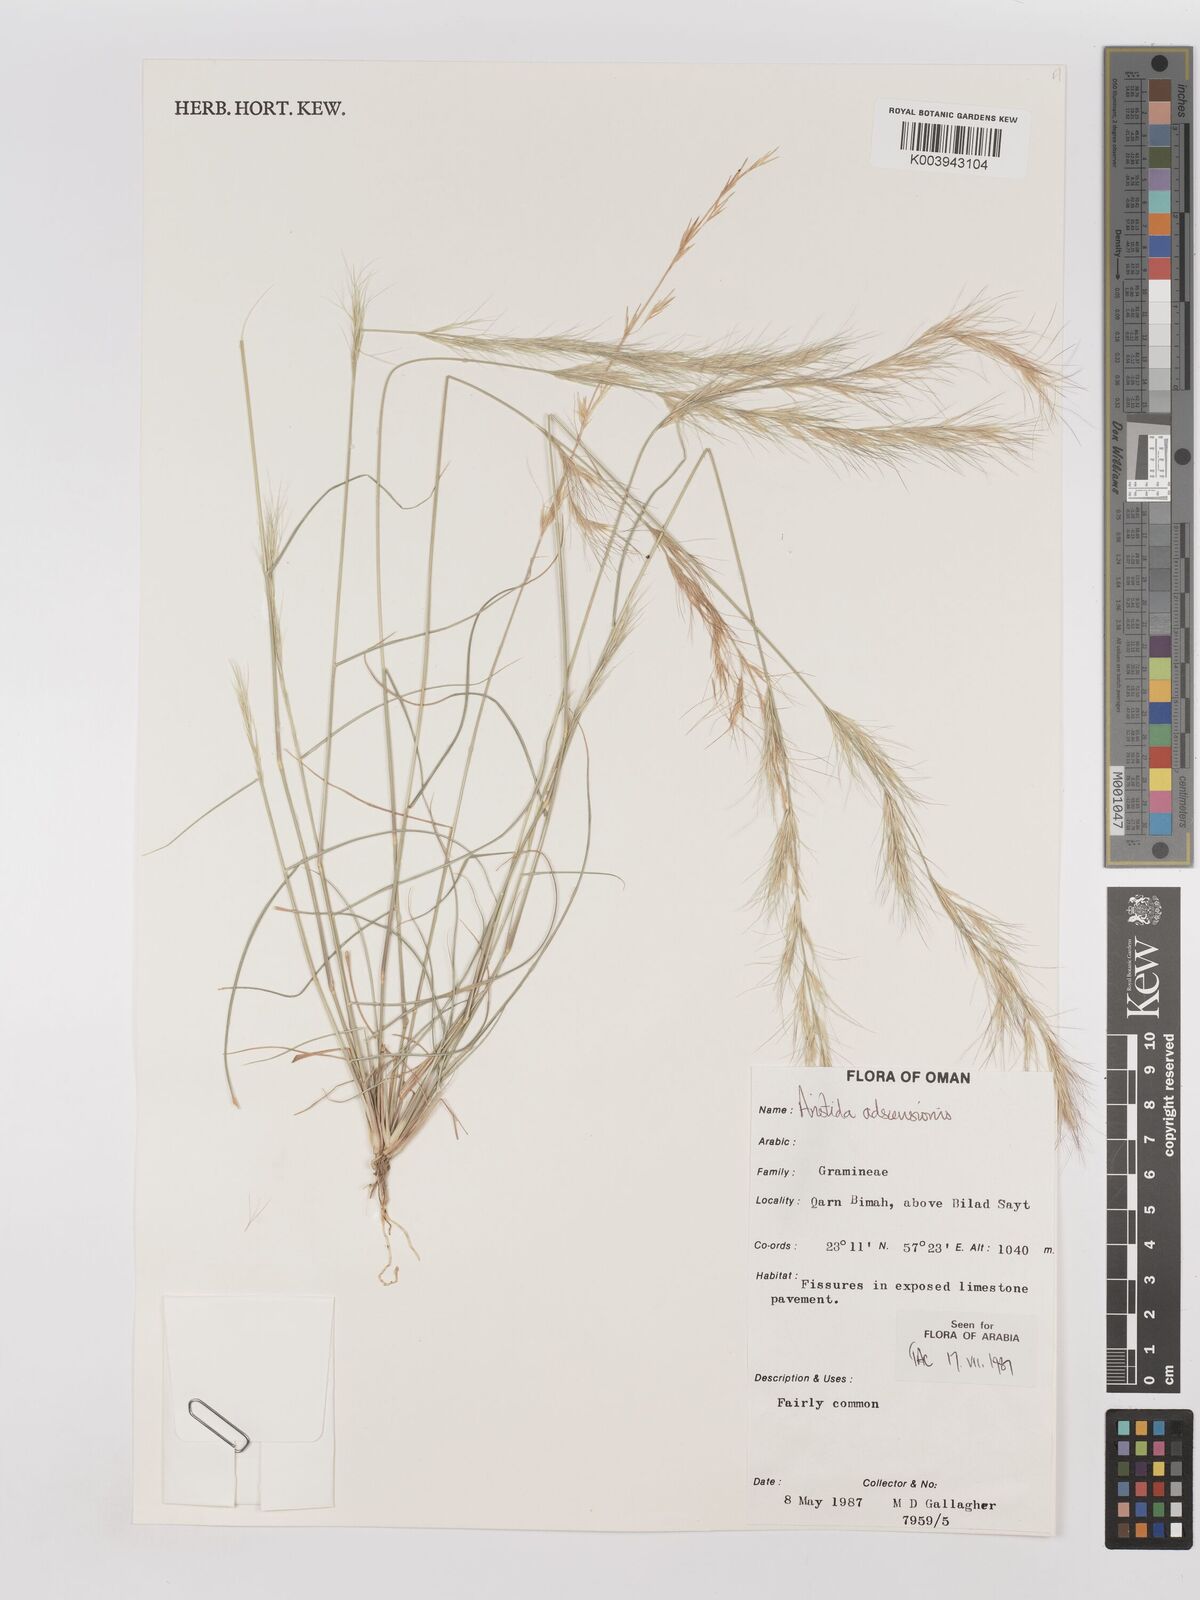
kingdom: Plantae
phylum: Tracheophyta
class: Liliopsida
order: Poales
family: Poaceae
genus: Aristida
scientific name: Aristida adscensionis
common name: Sixweeks threeawn
